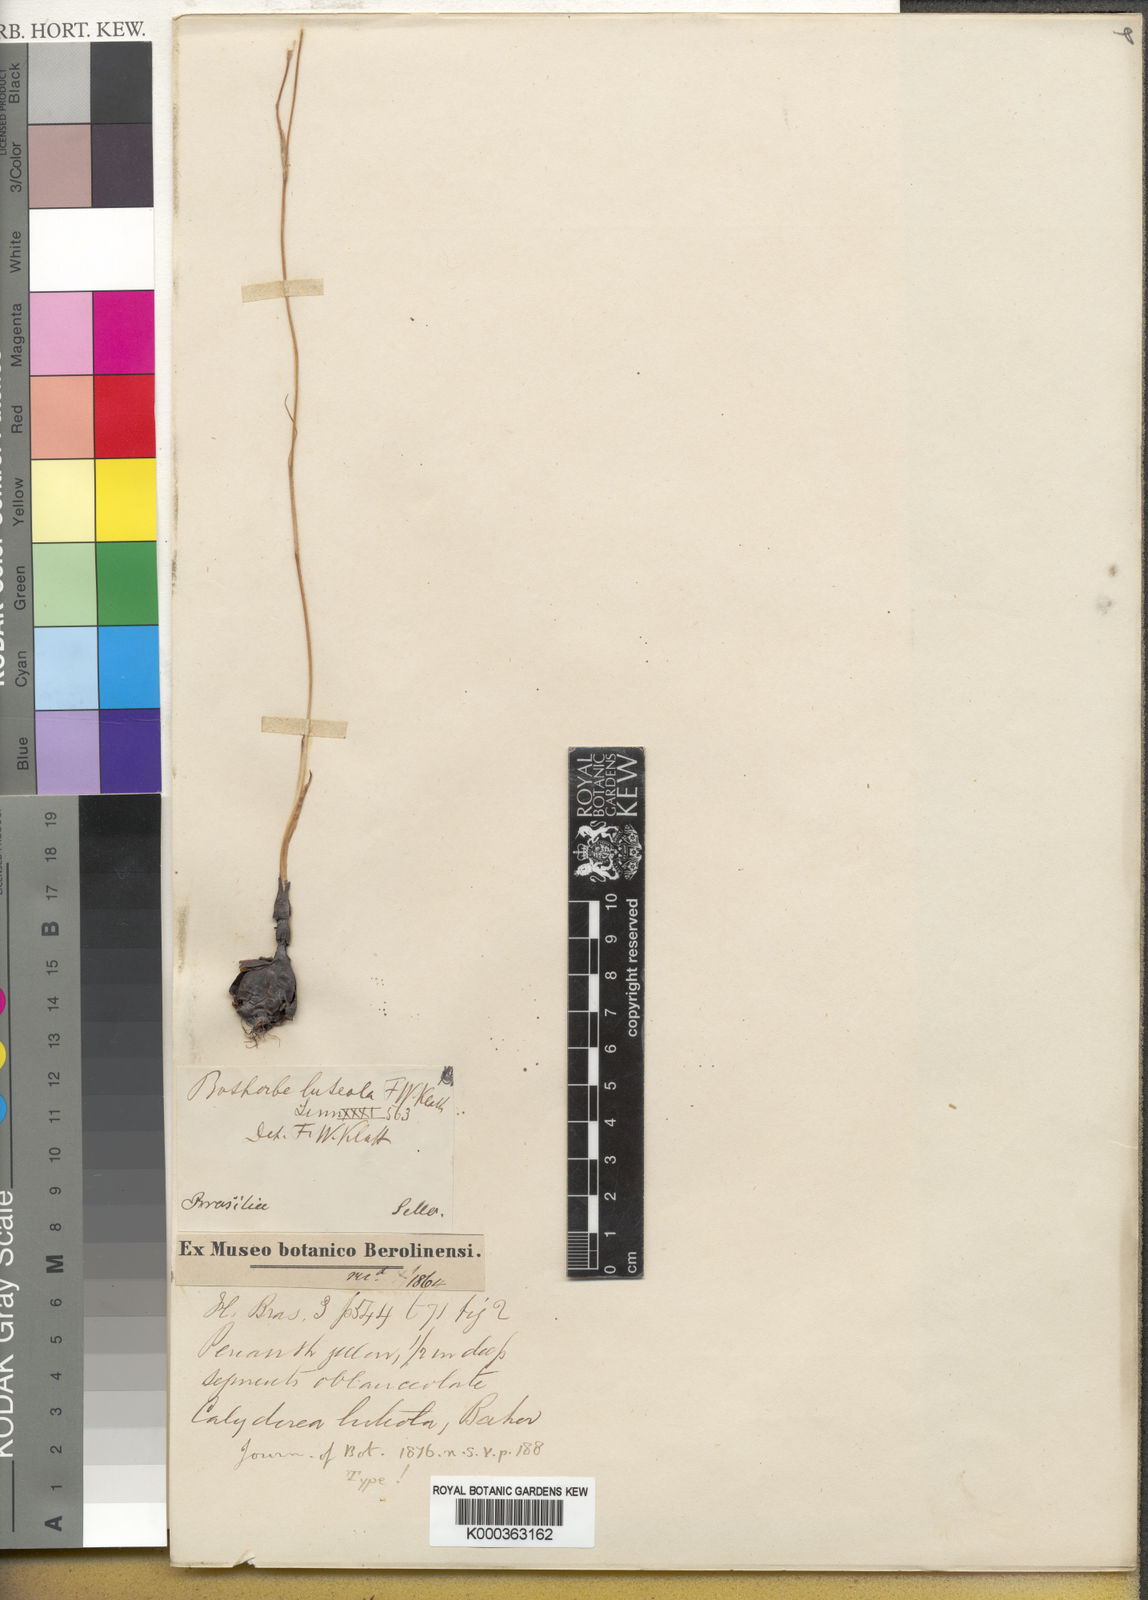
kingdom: Plantae
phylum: Tracheophyta
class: Liliopsida
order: Asparagales
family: Iridaceae
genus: Calydorea
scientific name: Calydorea luteola
